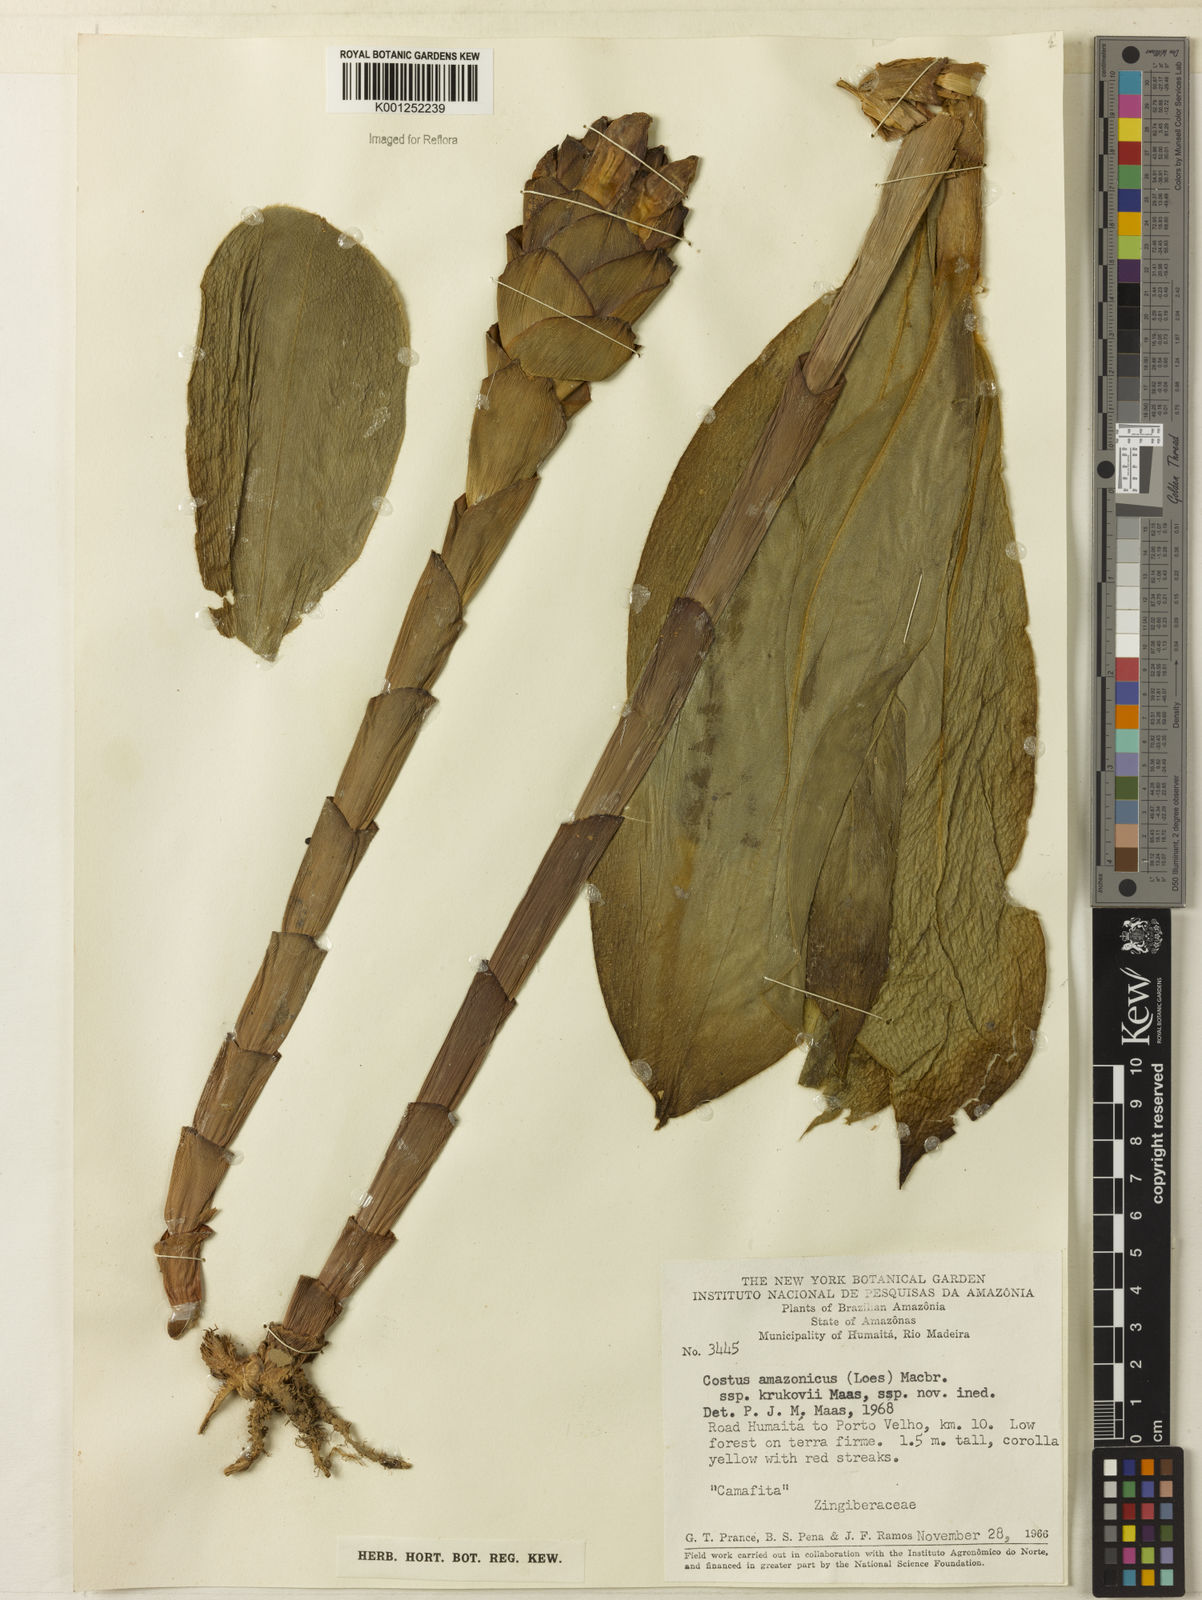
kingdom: Plantae
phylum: Tracheophyta
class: Liliopsida
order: Zingiberales
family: Costaceae
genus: Costus
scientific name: Costus amazonicus
